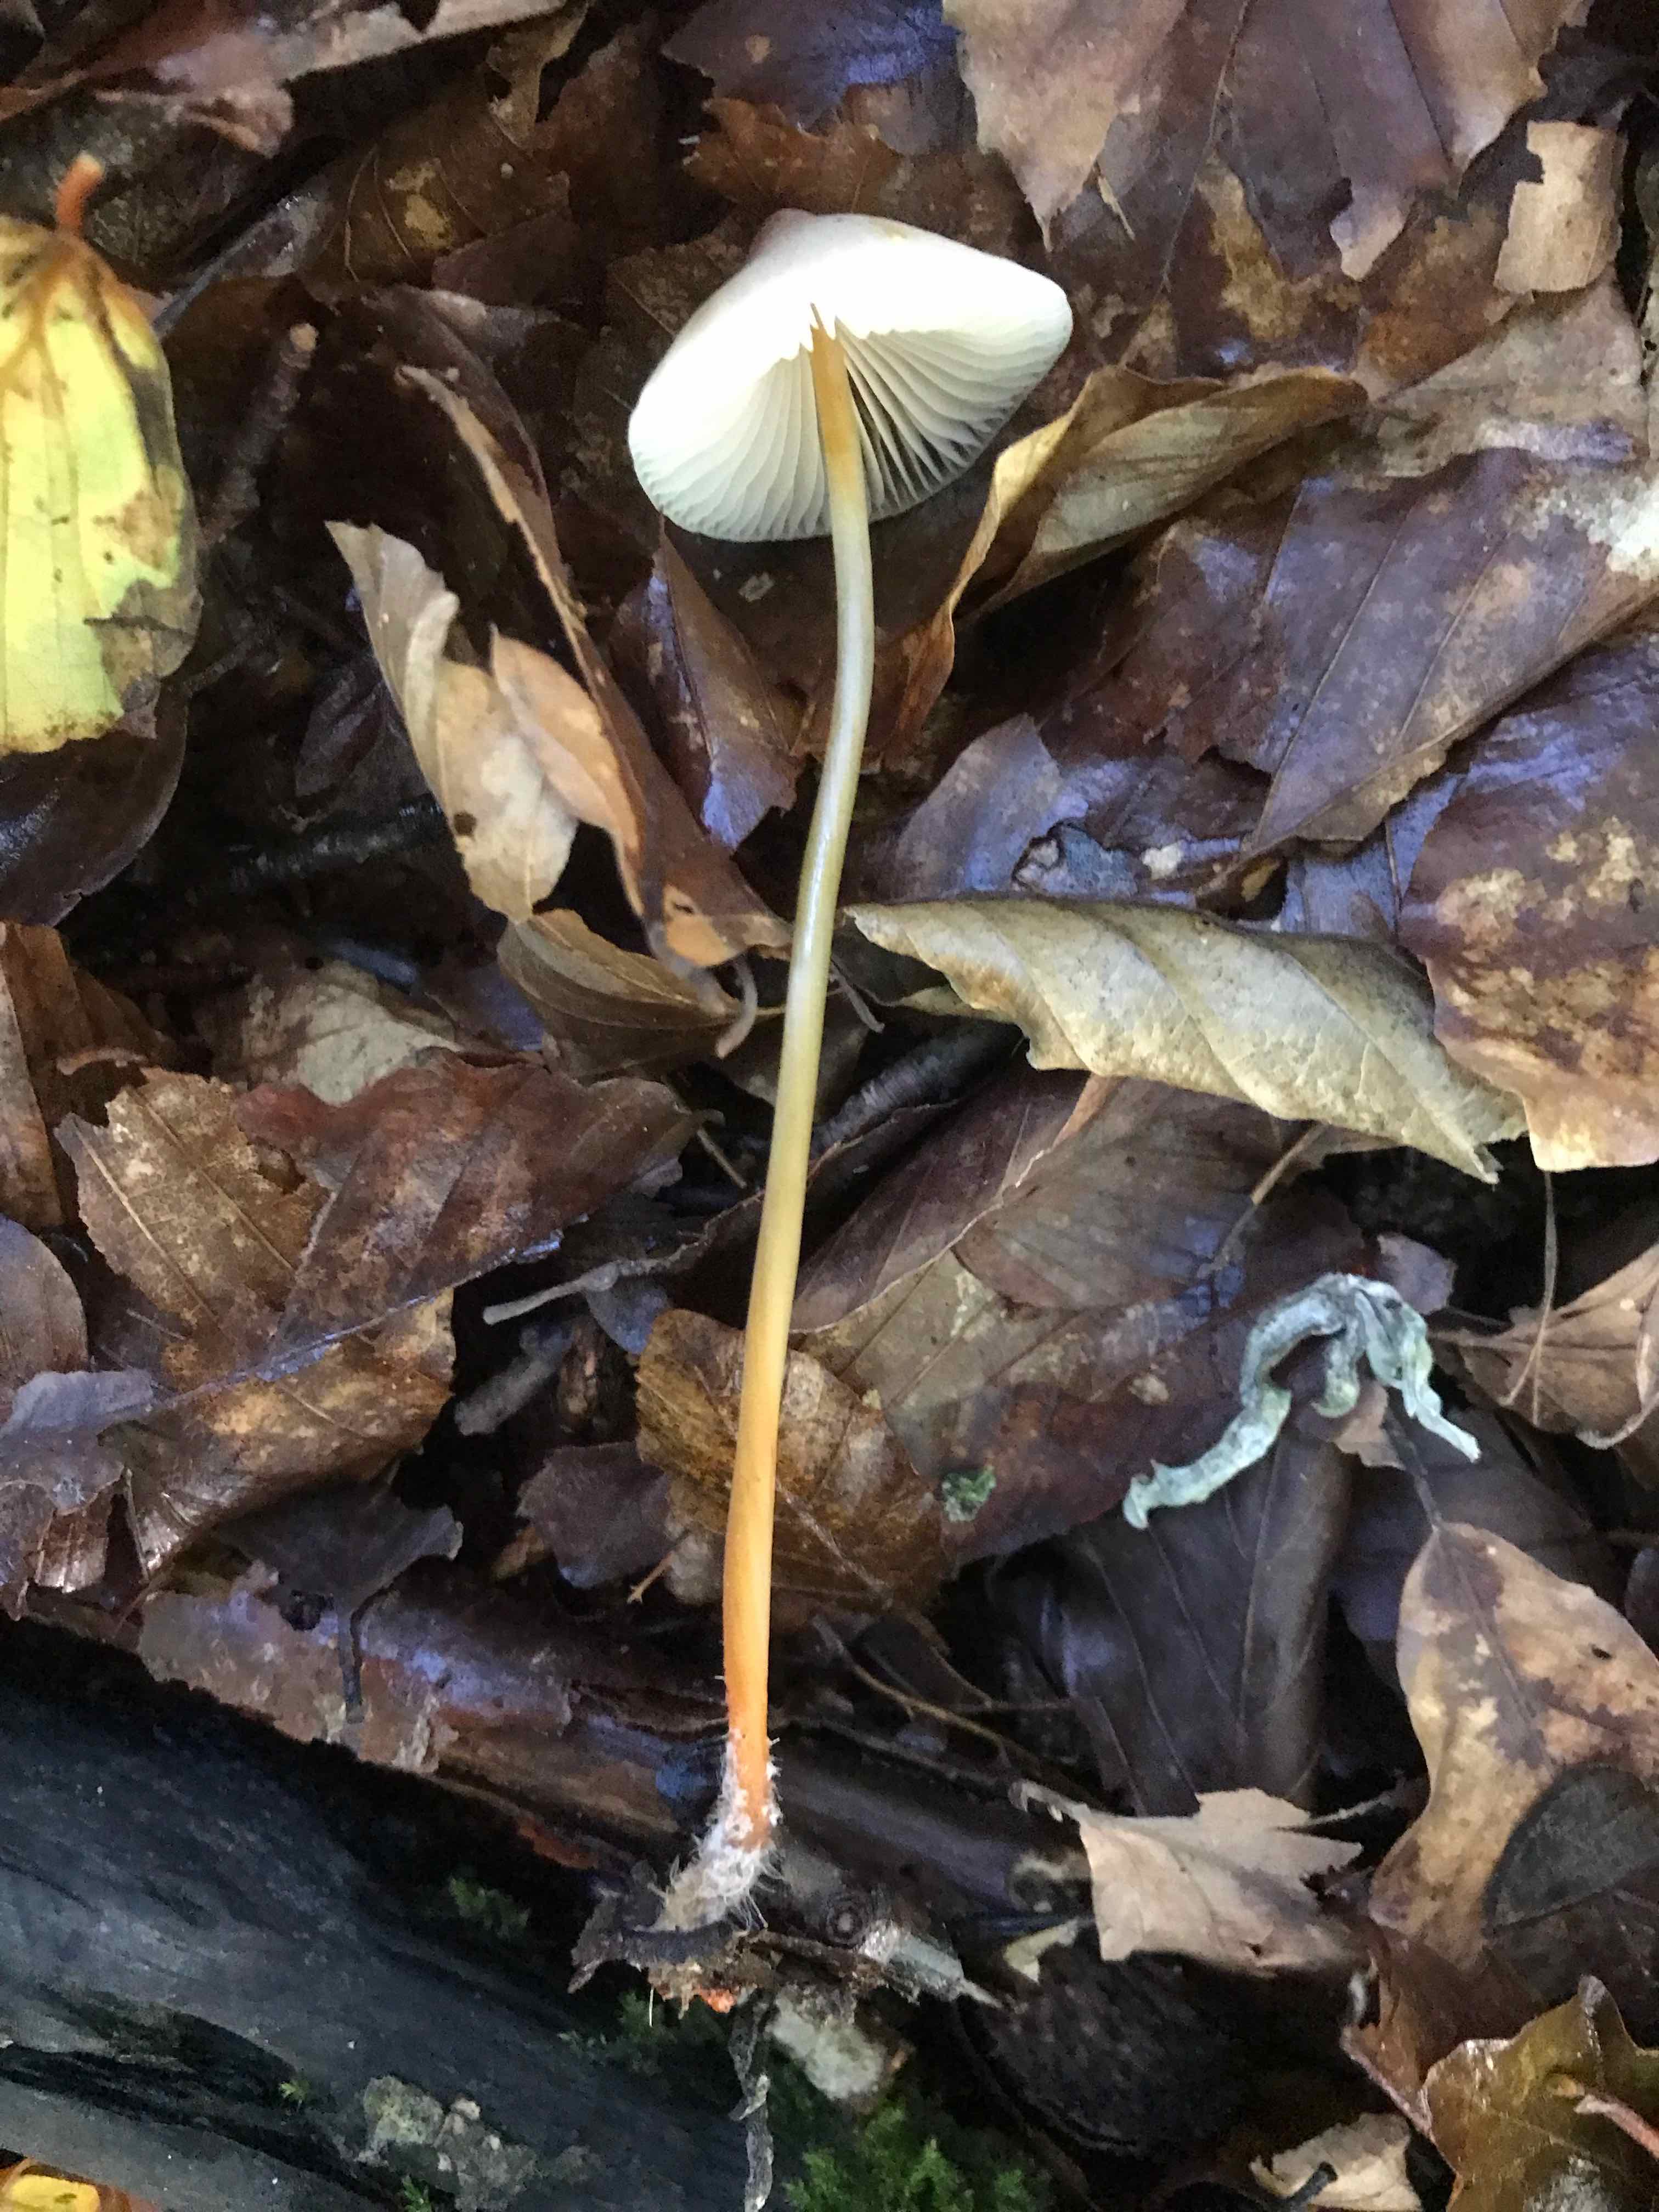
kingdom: Fungi
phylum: Basidiomycota
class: Agaricomycetes
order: Agaricales
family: Mycenaceae
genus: Mycena
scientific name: Mycena crocata
